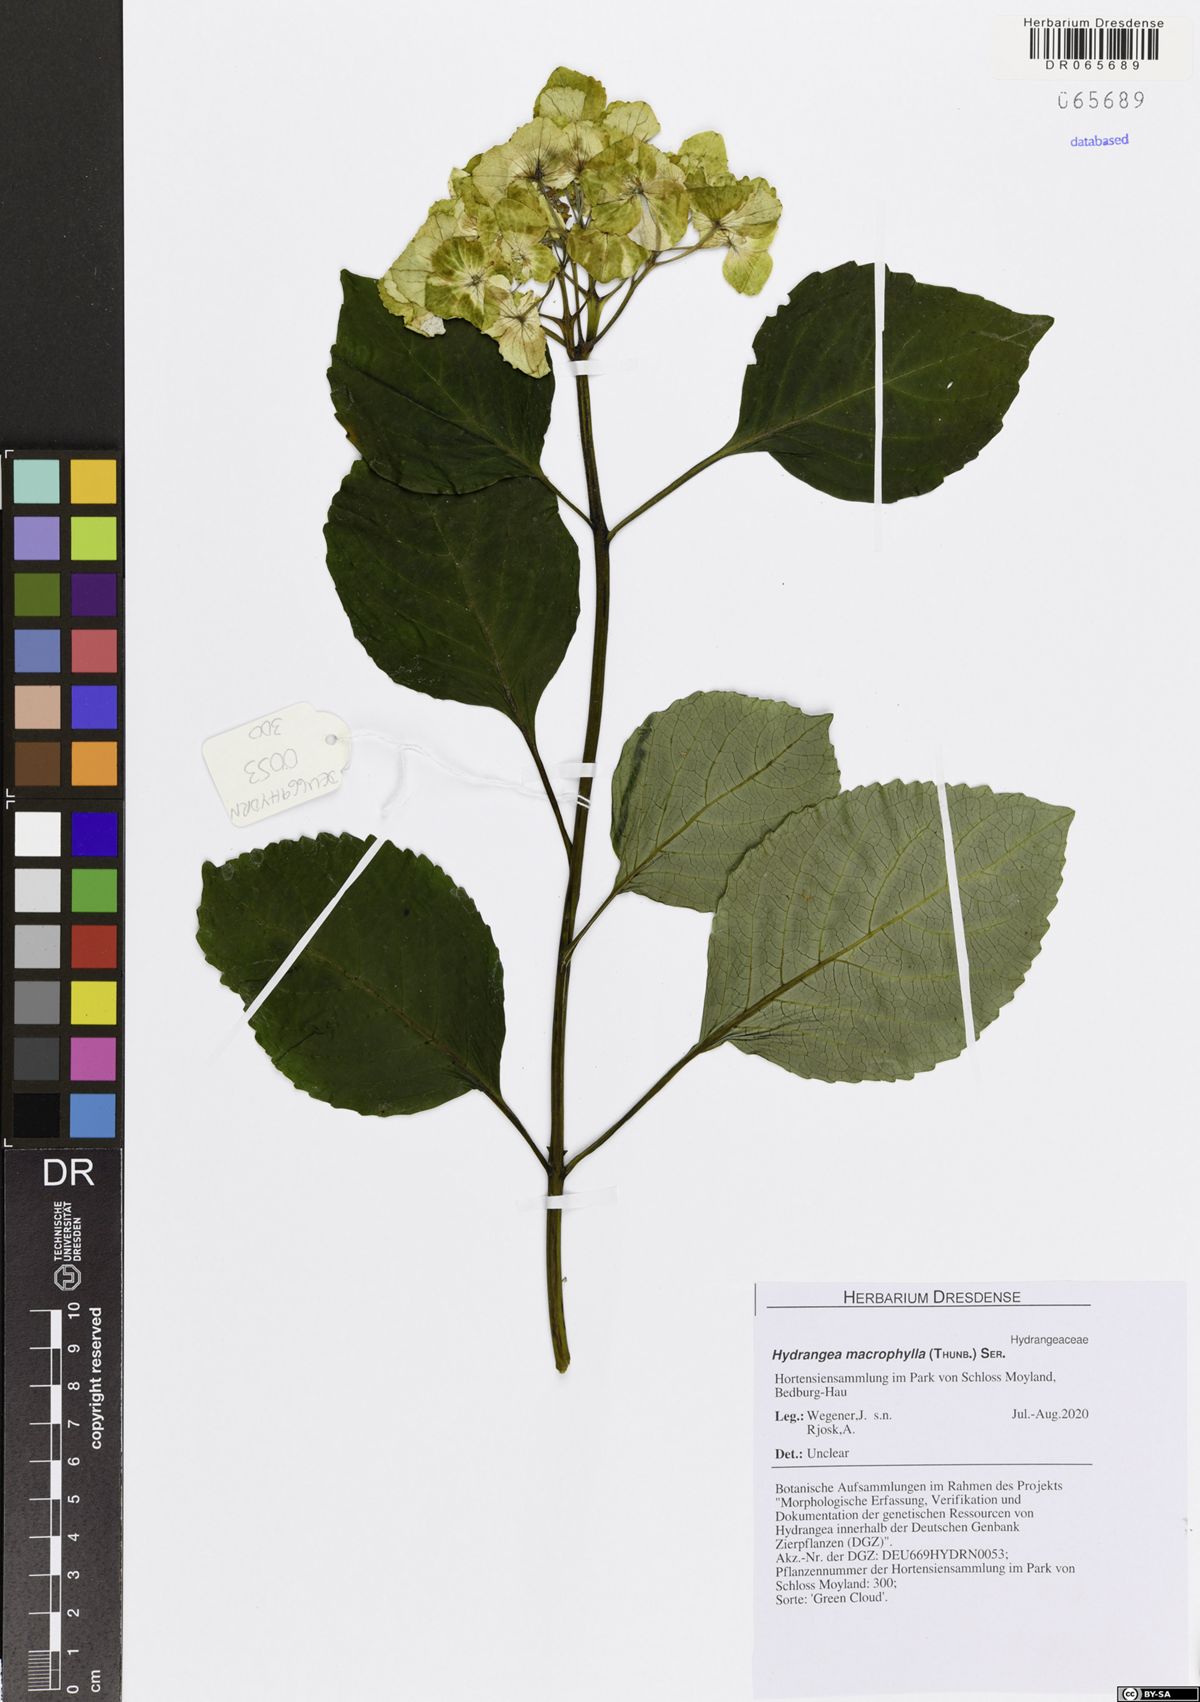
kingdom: Plantae
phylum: Tracheophyta
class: Magnoliopsida
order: Cornales
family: Hydrangeaceae
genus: Hydrangea
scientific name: Hydrangea macrophylla
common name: Hydrangea
